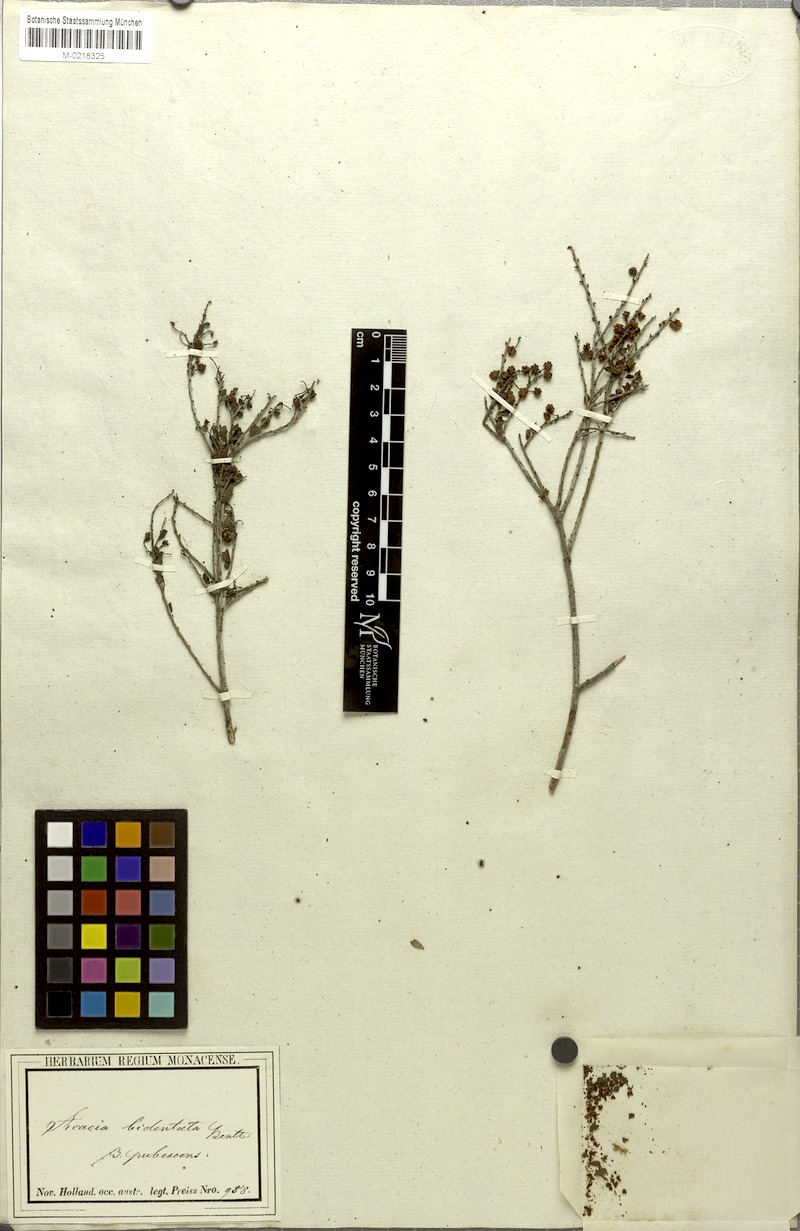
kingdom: Plantae
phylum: Tracheophyta
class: Magnoliopsida
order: Fabales
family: Fabaceae
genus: Acacia
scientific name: Acacia bidentata
